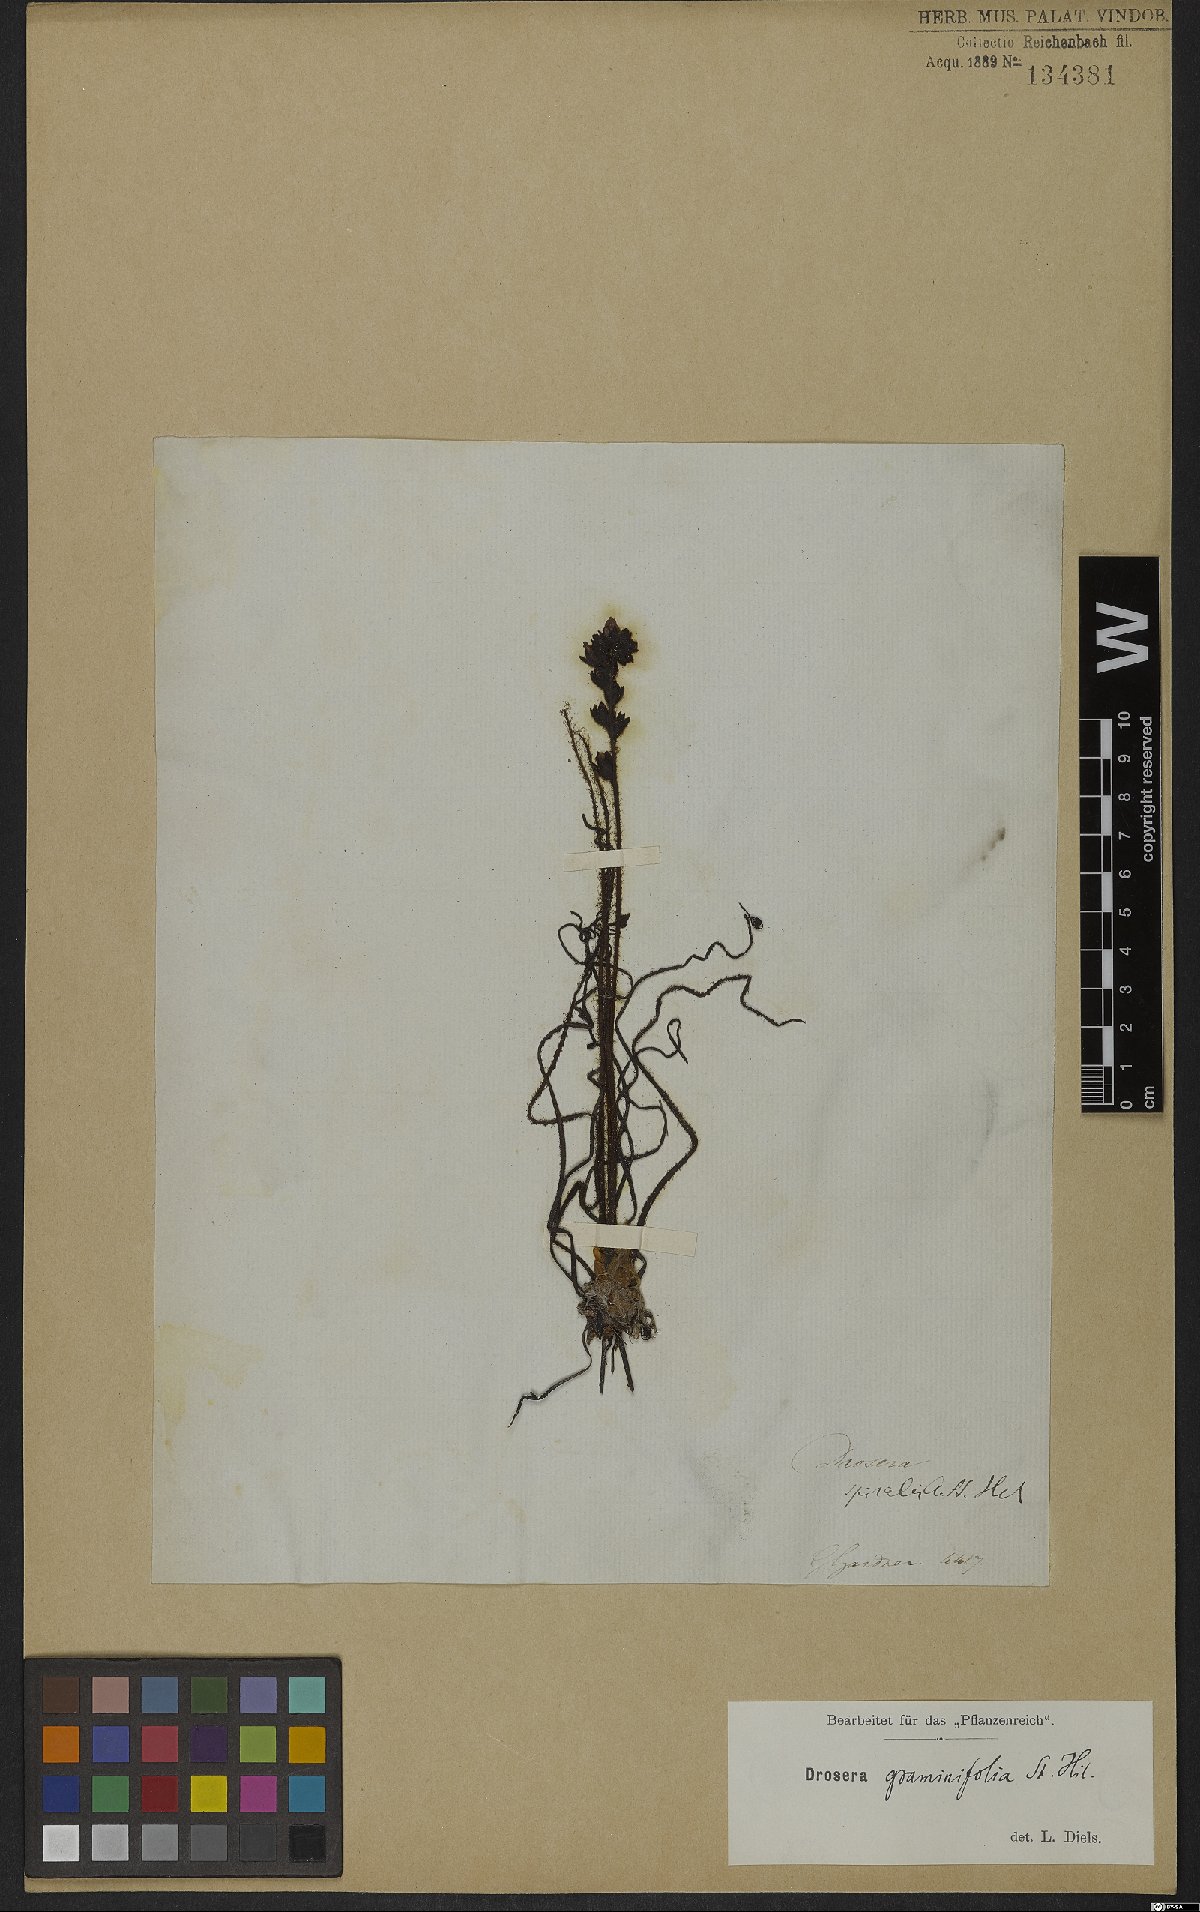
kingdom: Plantae
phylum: Tracheophyta
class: Magnoliopsida
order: Caryophyllales
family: Droseraceae
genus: Drosera
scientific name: Drosera graminifolia
